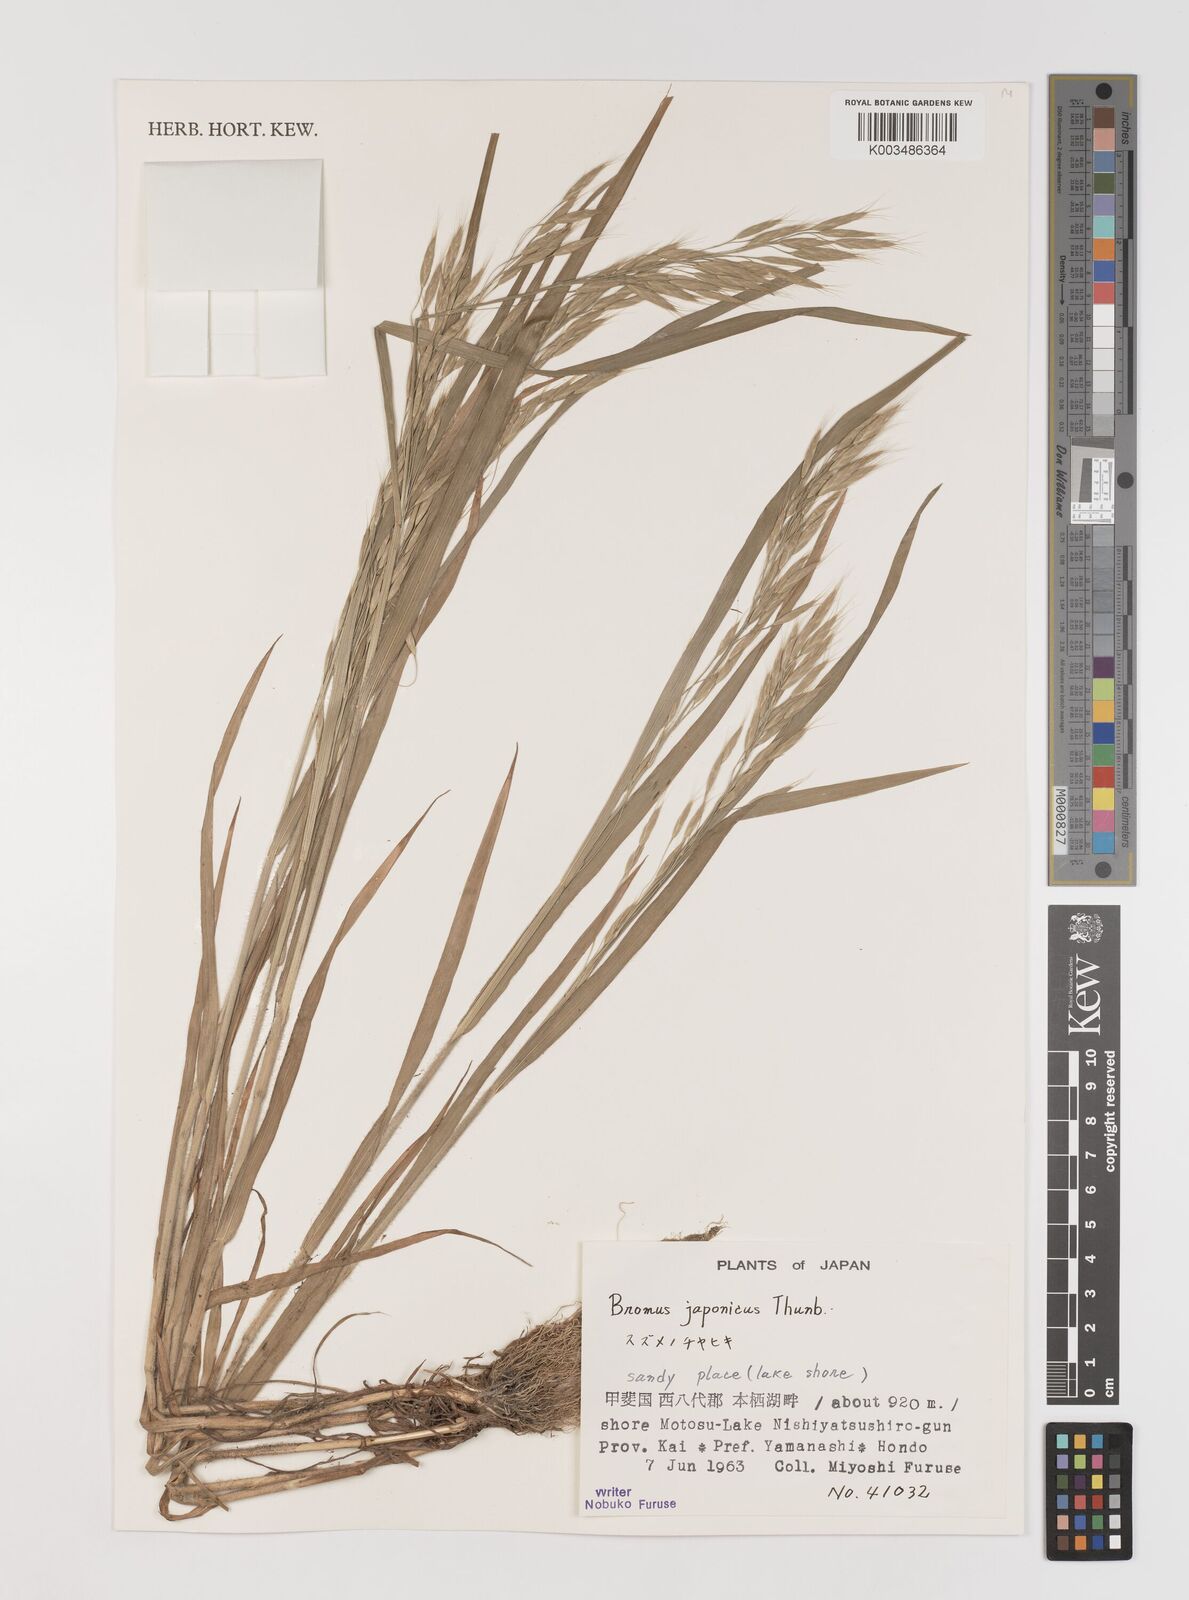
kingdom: Plantae
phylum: Tracheophyta
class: Liliopsida
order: Poales
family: Poaceae
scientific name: Poaceae
